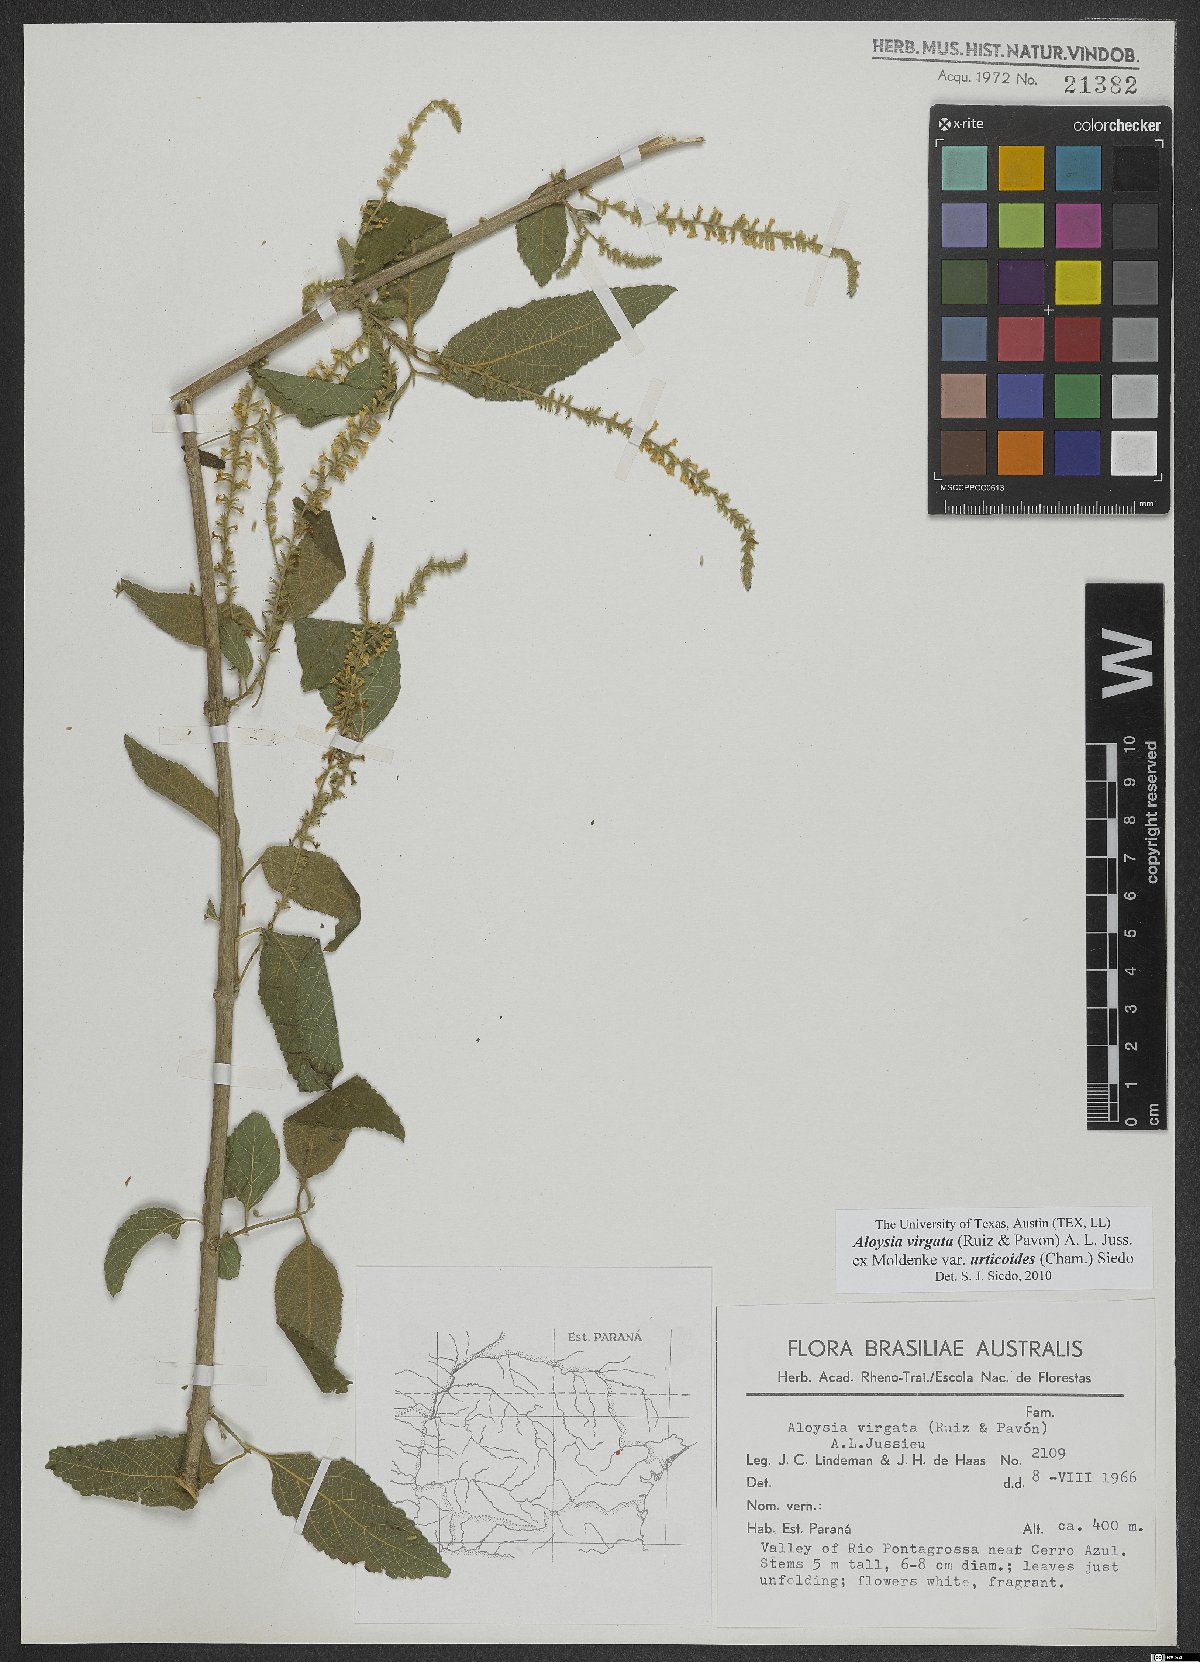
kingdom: Plantae
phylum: Tracheophyta
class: Magnoliopsida
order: Lamiales
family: Verbenaceae
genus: Aloysia
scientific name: Aloysia virgata
